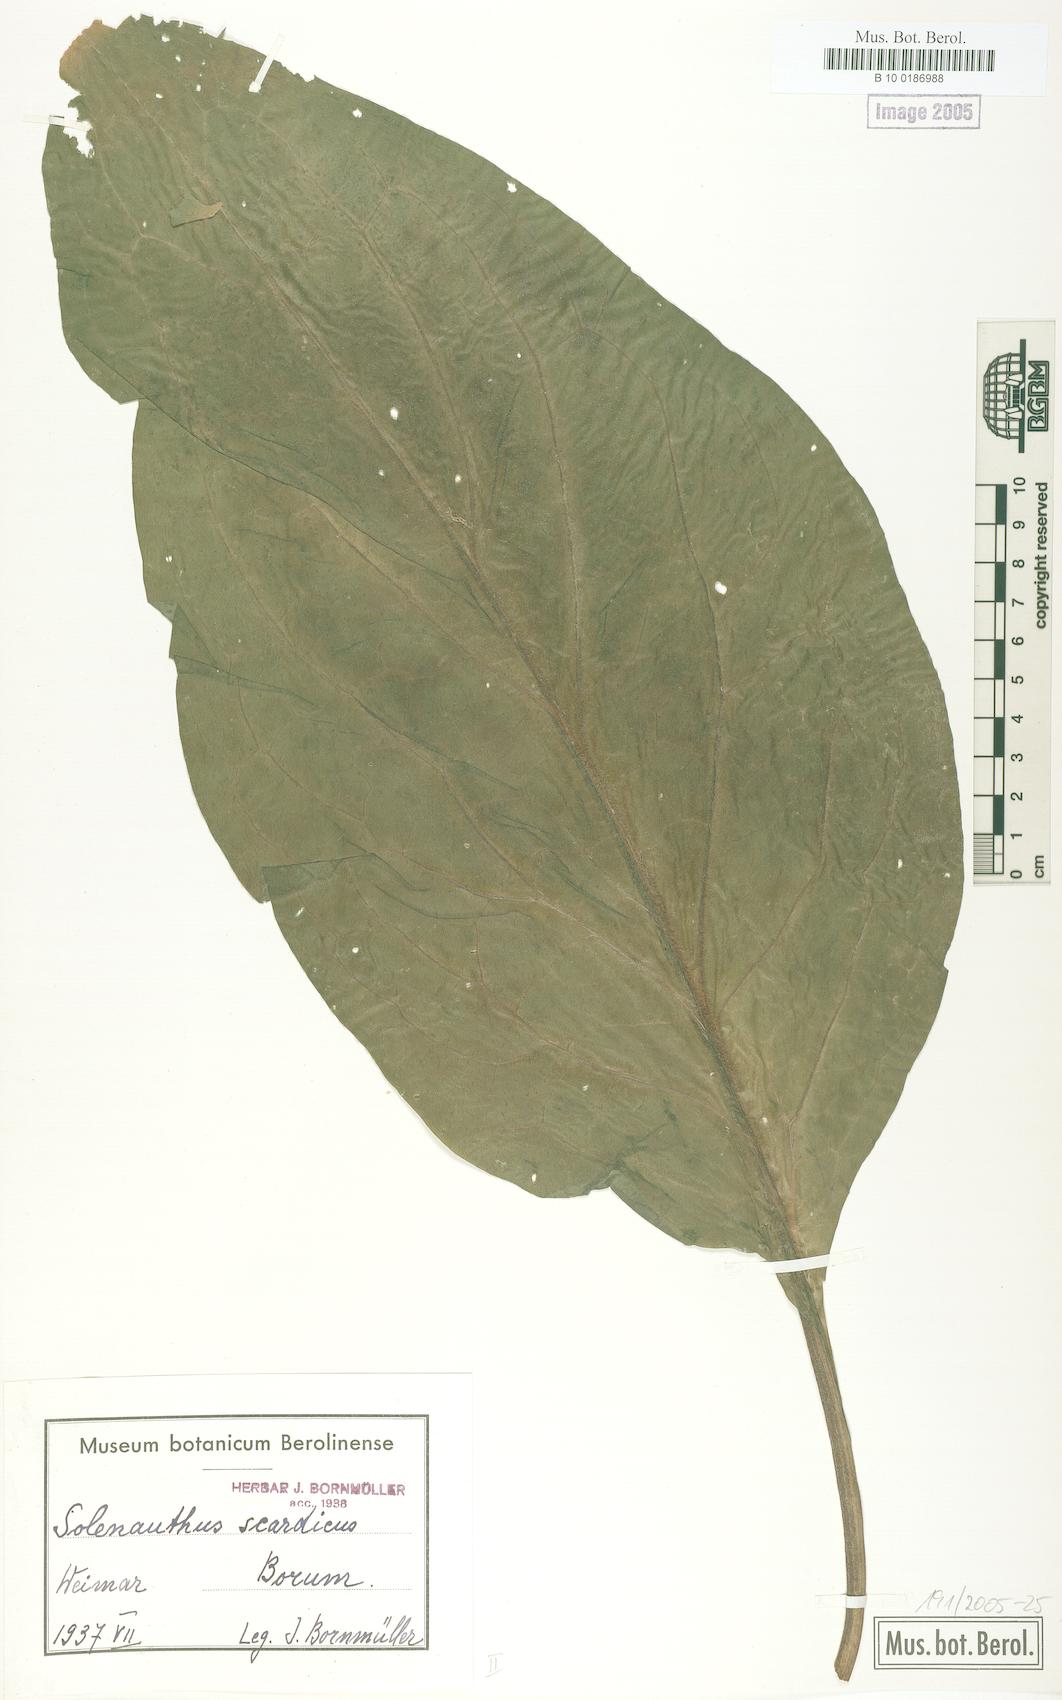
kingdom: Plantae
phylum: Tracheophyta
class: Magnoliopsida
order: Boraginales
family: Boraginaceae
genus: Solenanthus
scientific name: Solenanthus scardicus
